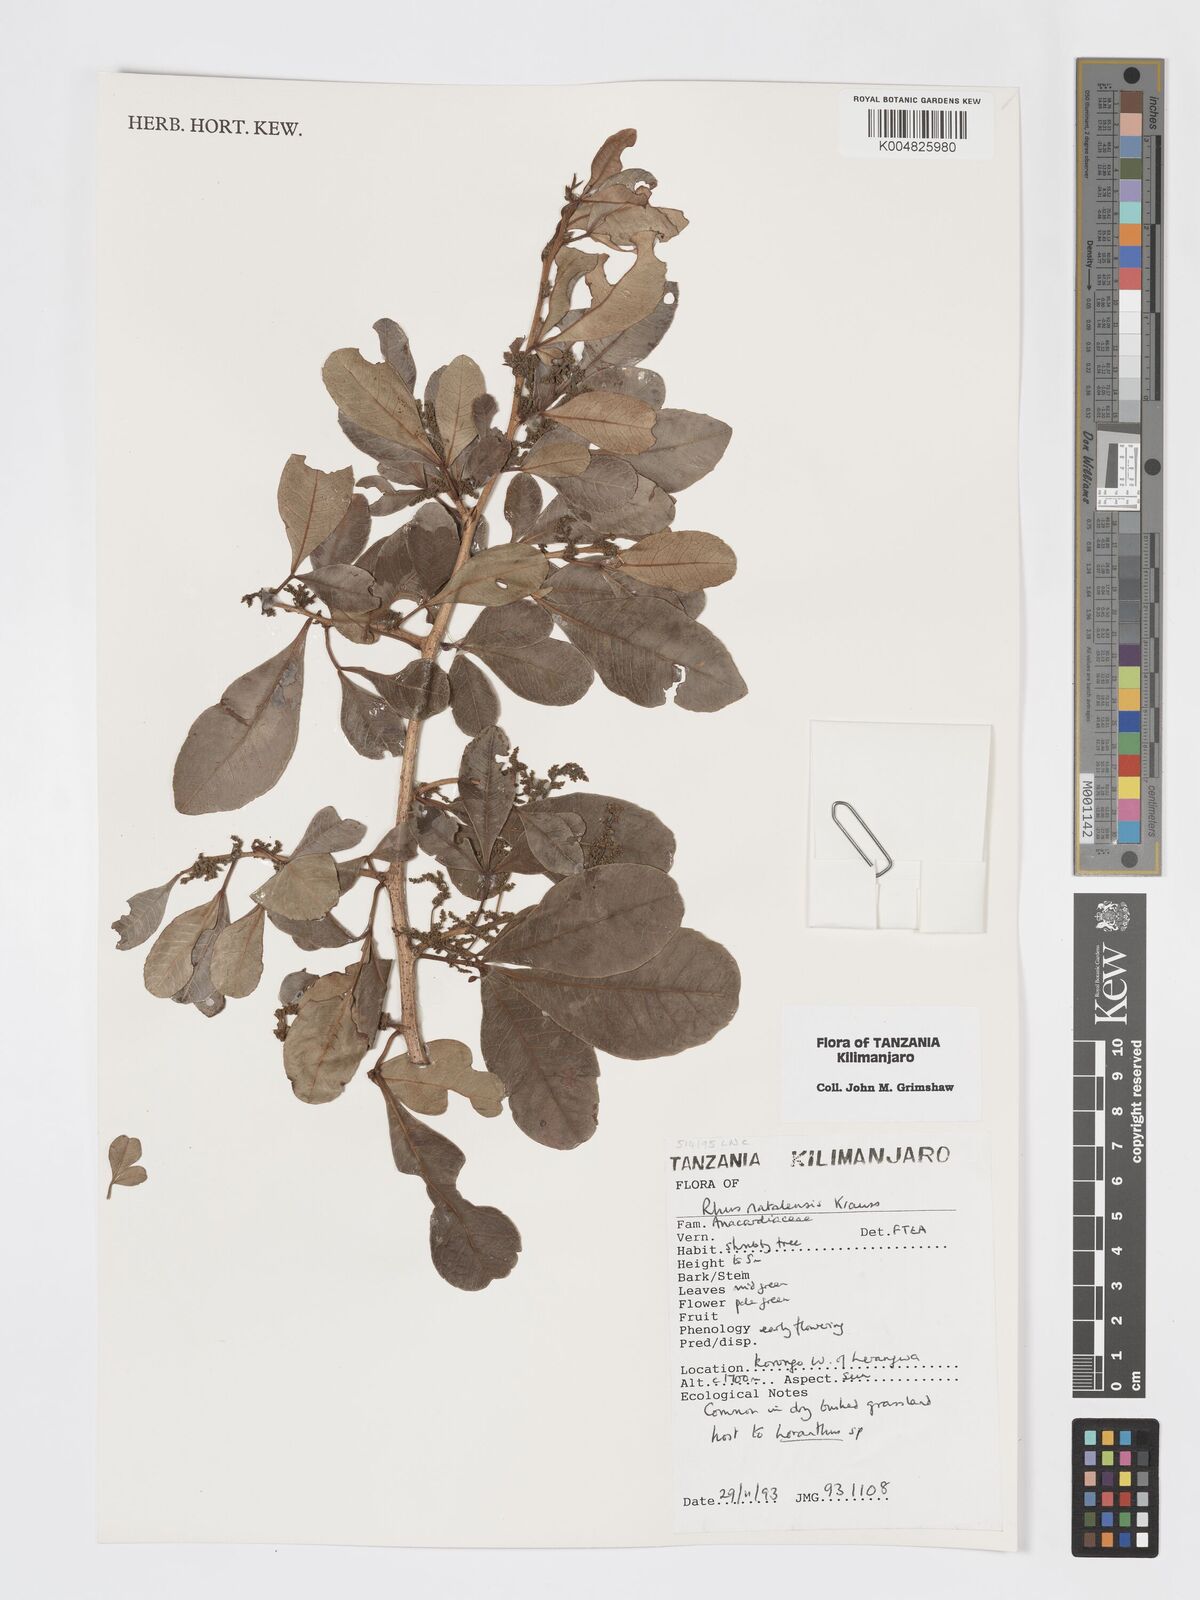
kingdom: Plantae
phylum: Tracheophyta
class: Magnoliopsida
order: Sapindales
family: Anacardiaceae
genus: Searsia
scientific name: Searsia natalensis
